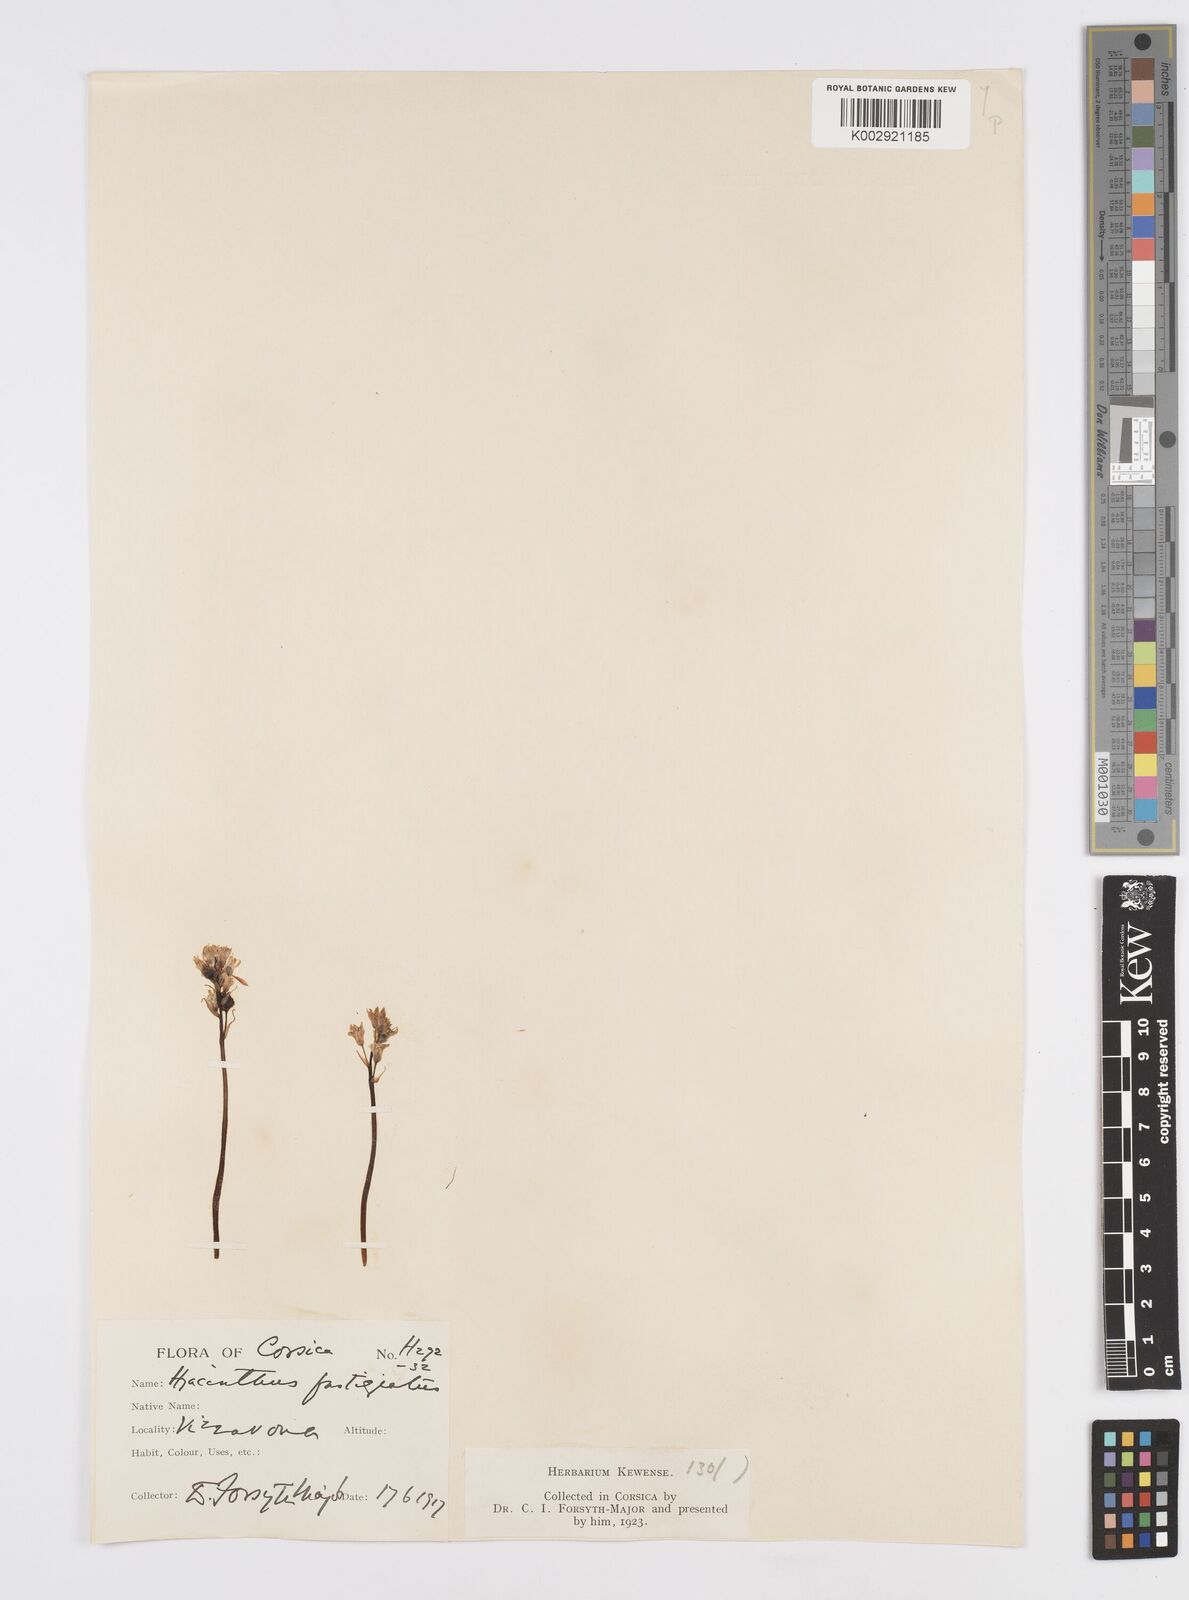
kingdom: Plantae
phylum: Tracheophyta
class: Liliopsida
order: Asparagales
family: Asparagaceae
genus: Brimeura
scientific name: Brimeura fastigiata
